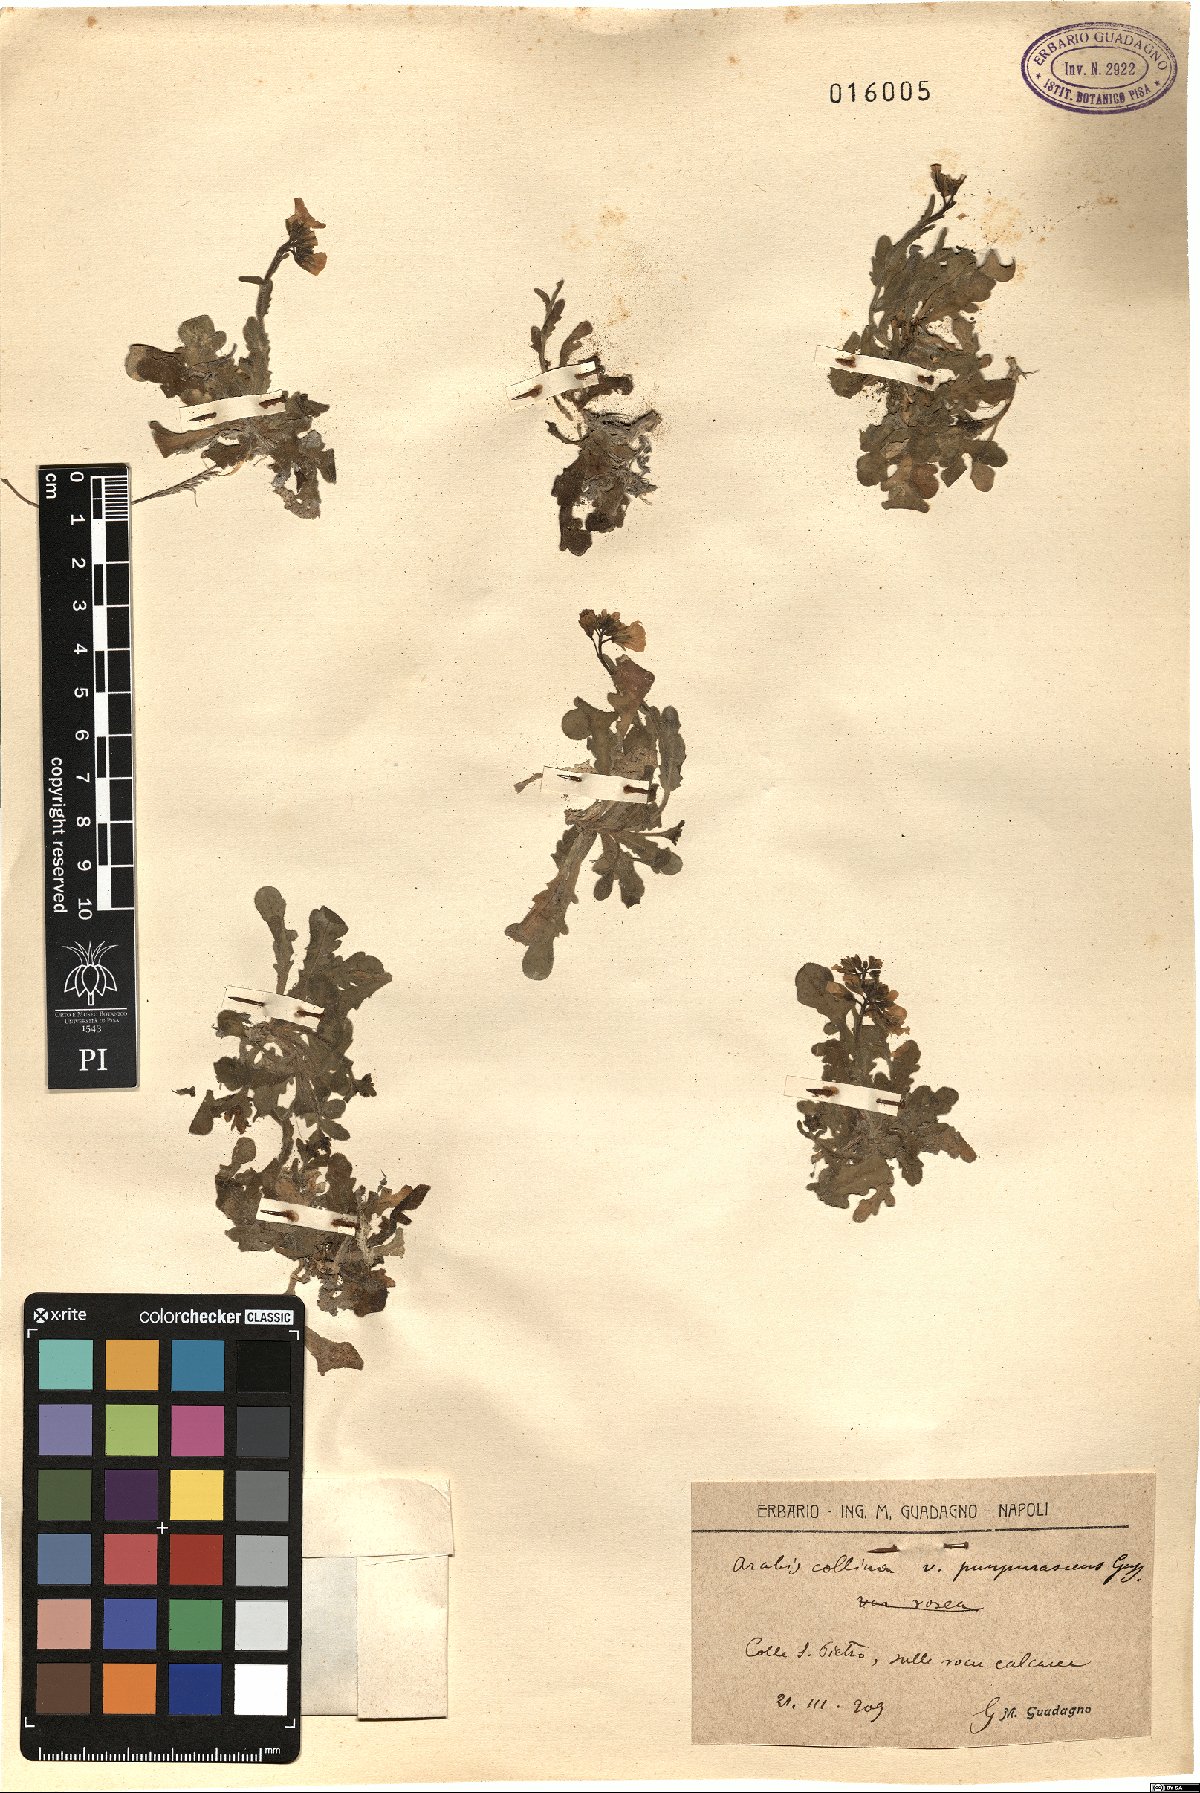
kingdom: Plantae
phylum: Tracheophyta
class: Magnoliopsida
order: Brassicales
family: Brassicaceae
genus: Arabis
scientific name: Arabis collina
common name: Rosy cress
